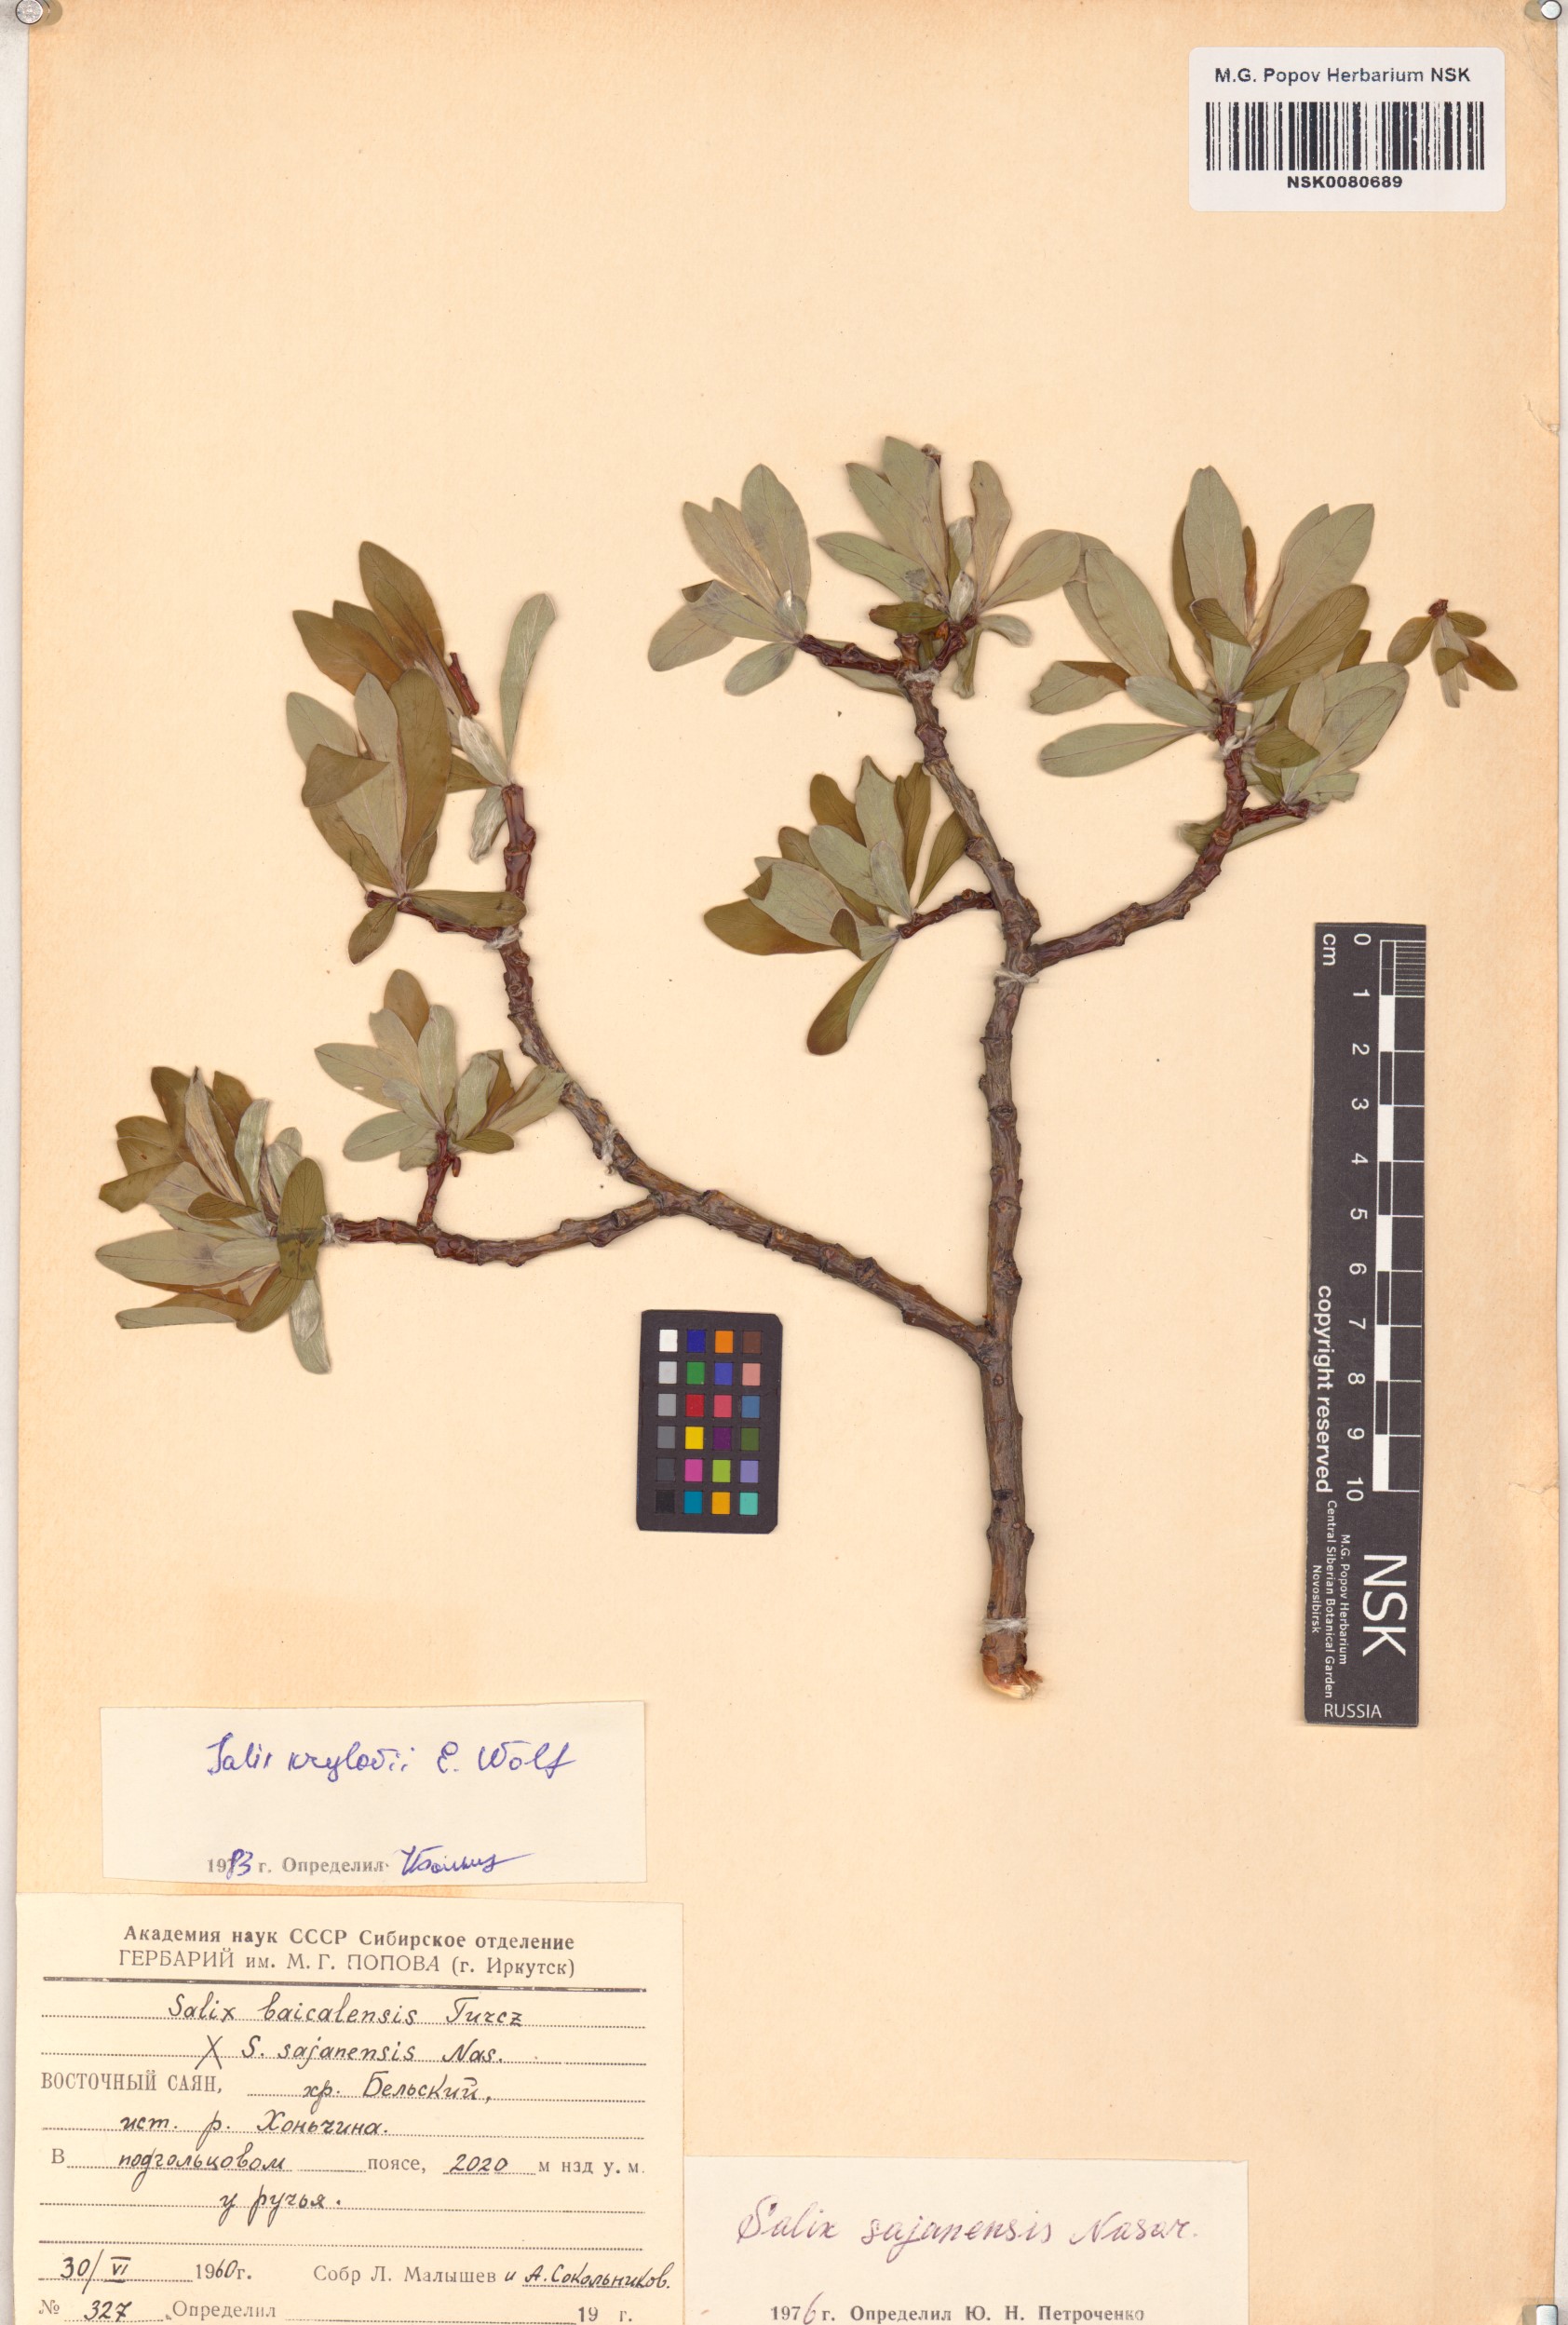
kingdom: Plantae
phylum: Tracheophyta
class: Magnoliopsida
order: Malpighiales
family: Salicaceae
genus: Salix
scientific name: Salix krylovii
